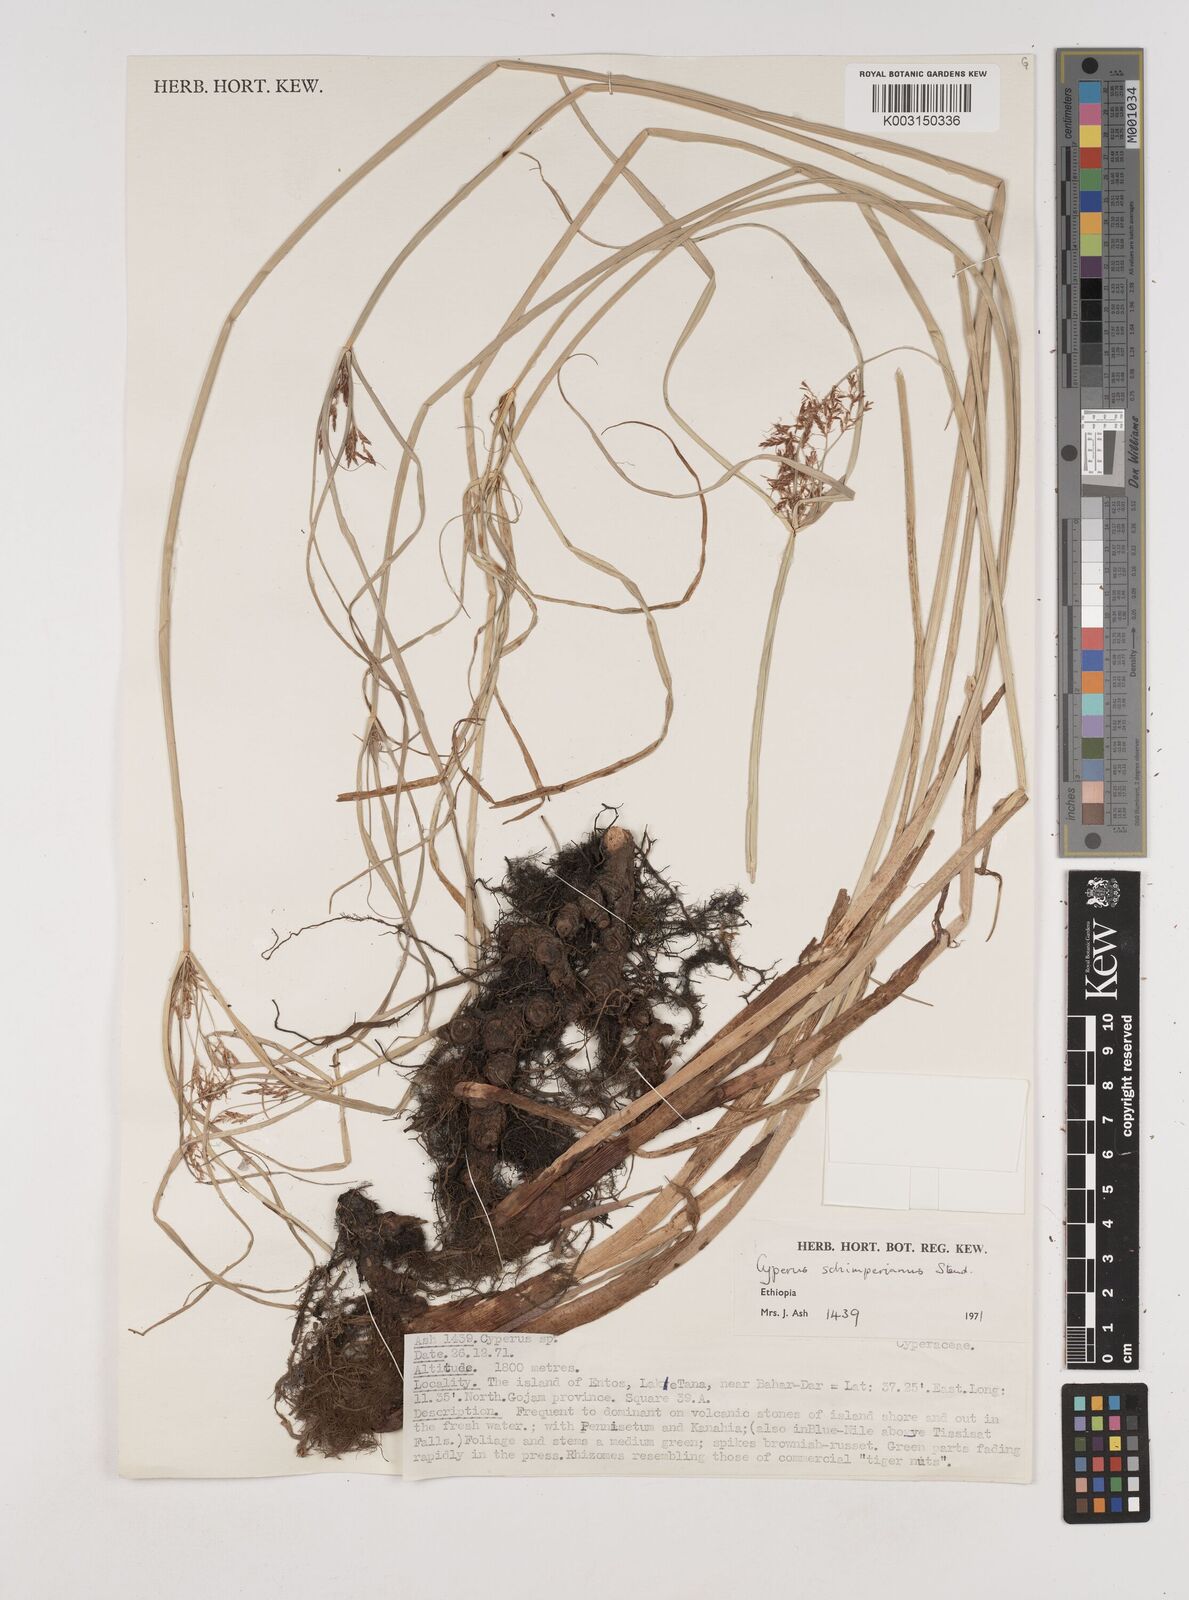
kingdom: Plantae
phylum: Tracheophyta
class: Liliopsida
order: Poales
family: Cyperaceae
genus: Cyperus
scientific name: Cyperus schimperianus
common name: Schimper flatsedge
